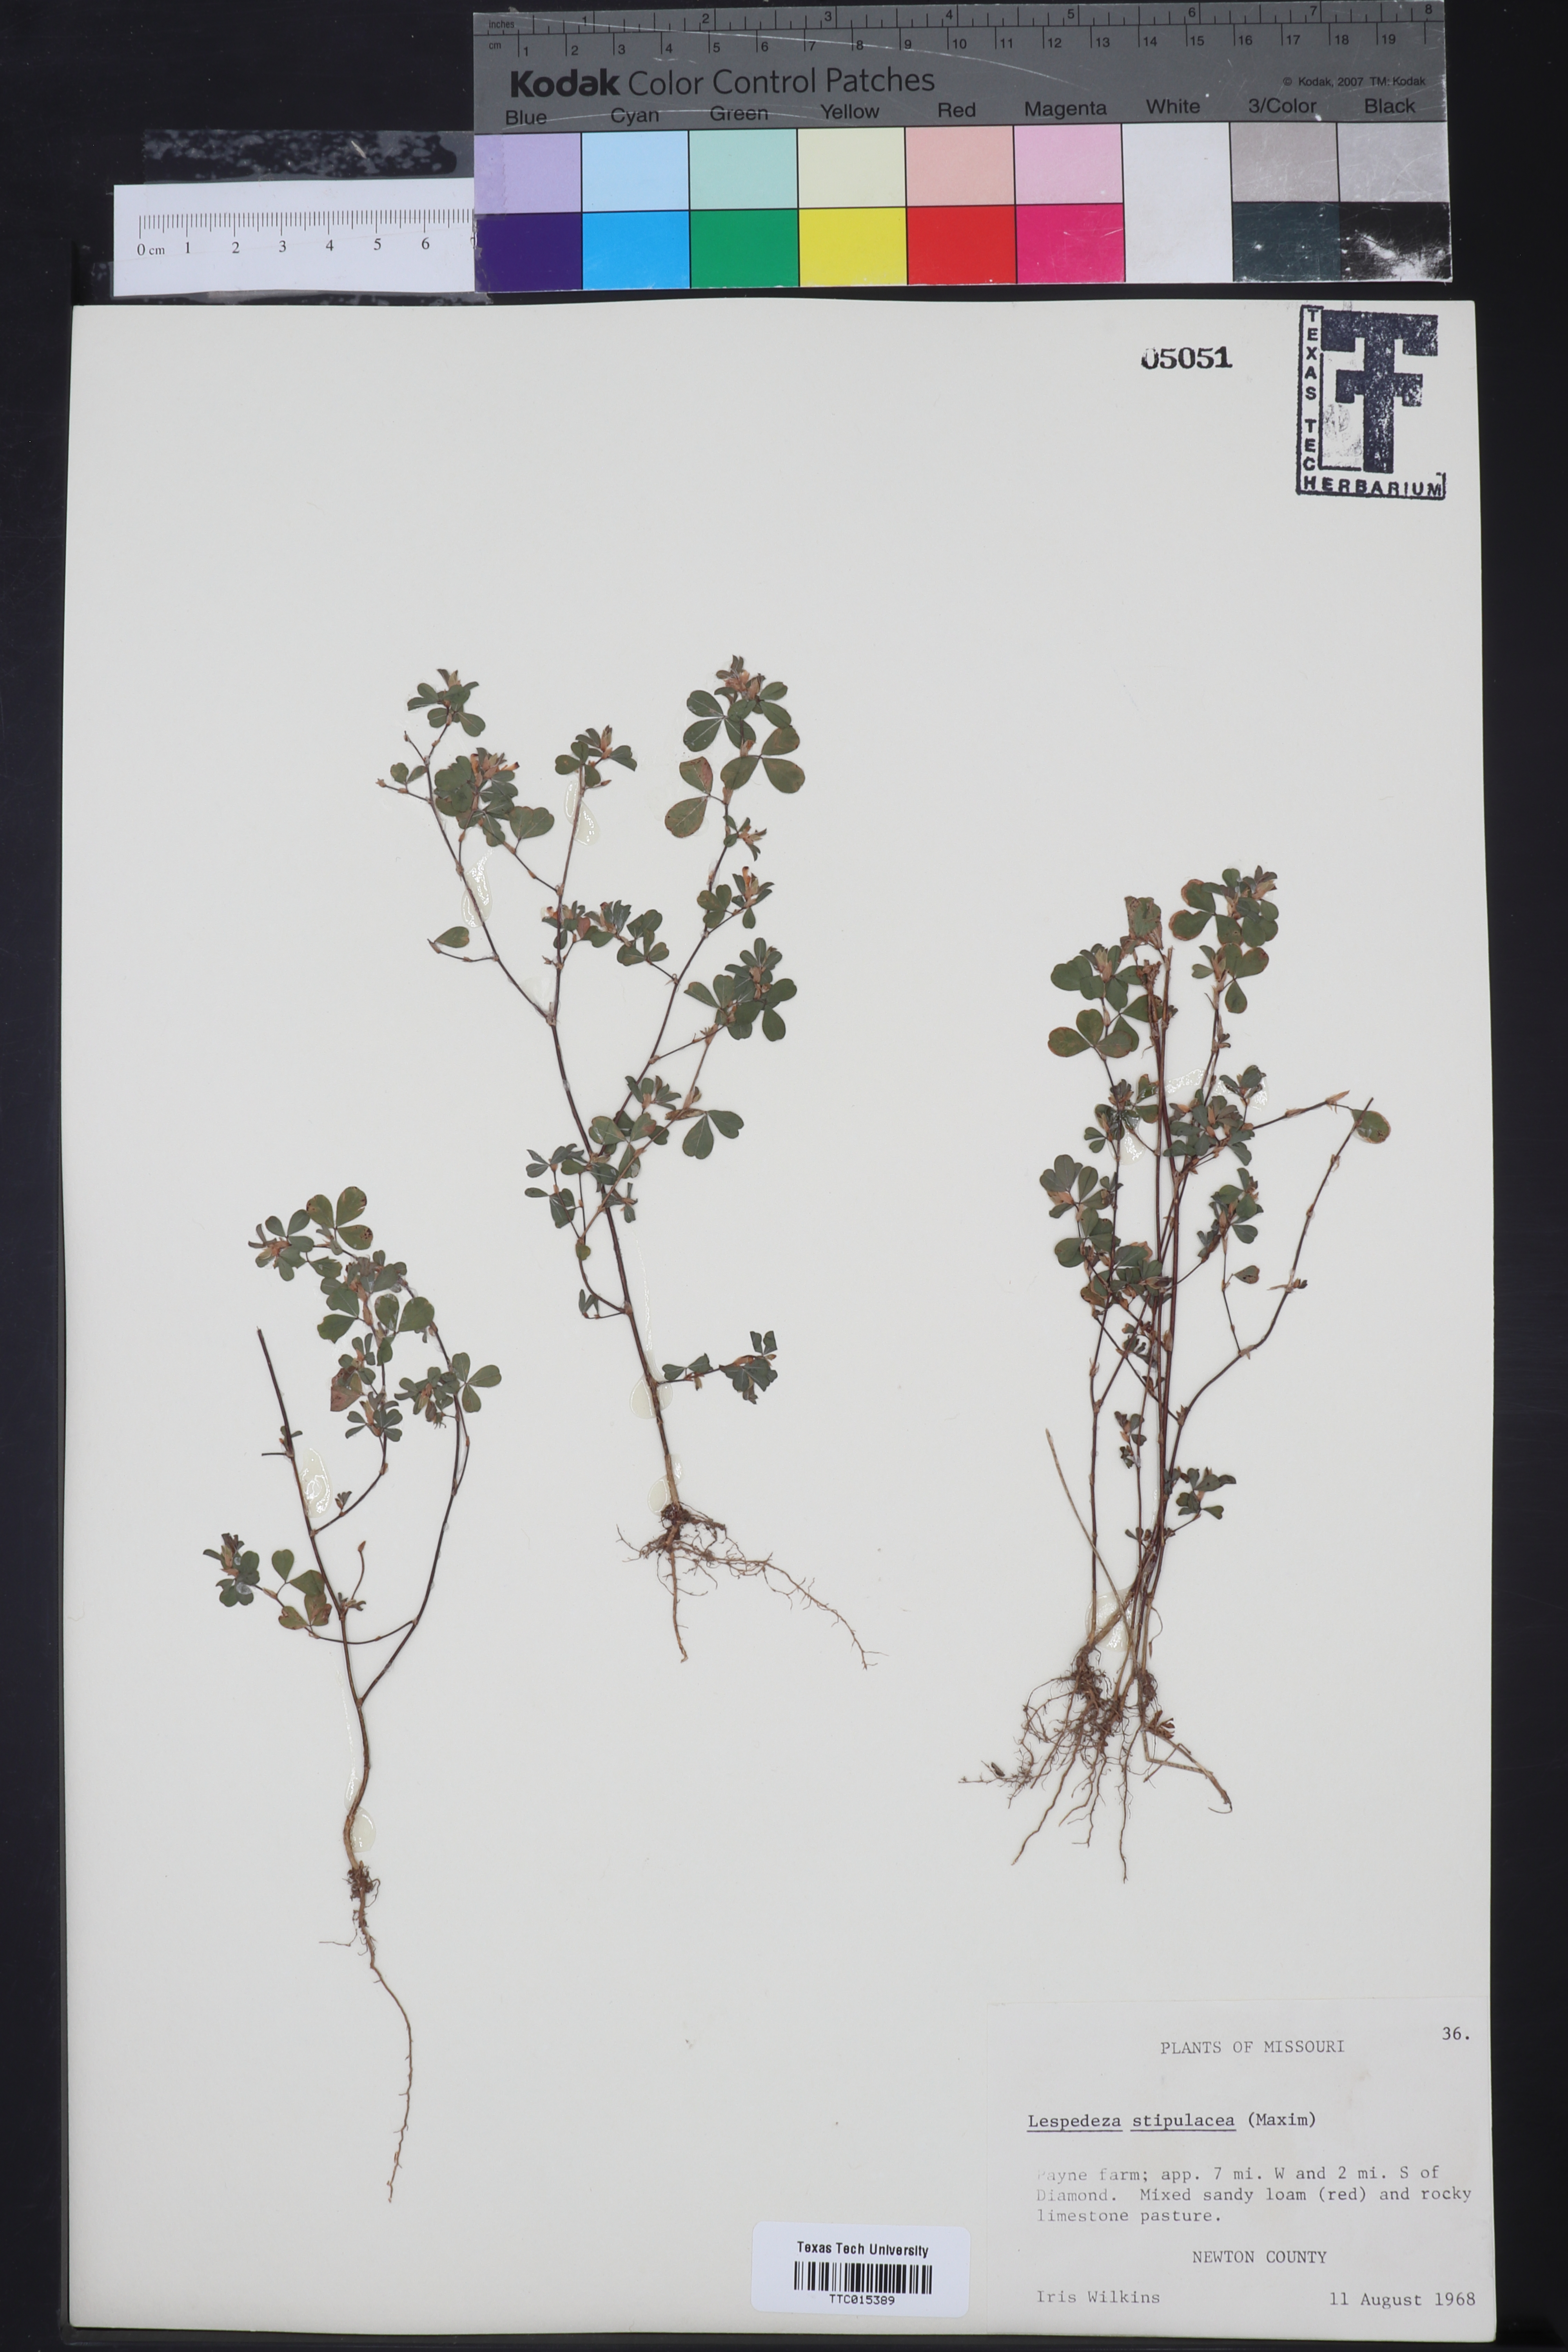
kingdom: Plantae
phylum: Tracheophyta
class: Magnoliopsida
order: Fabales
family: Fabaceae
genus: Kummerowia
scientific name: Kummerowia stipulacea
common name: Korean clover
